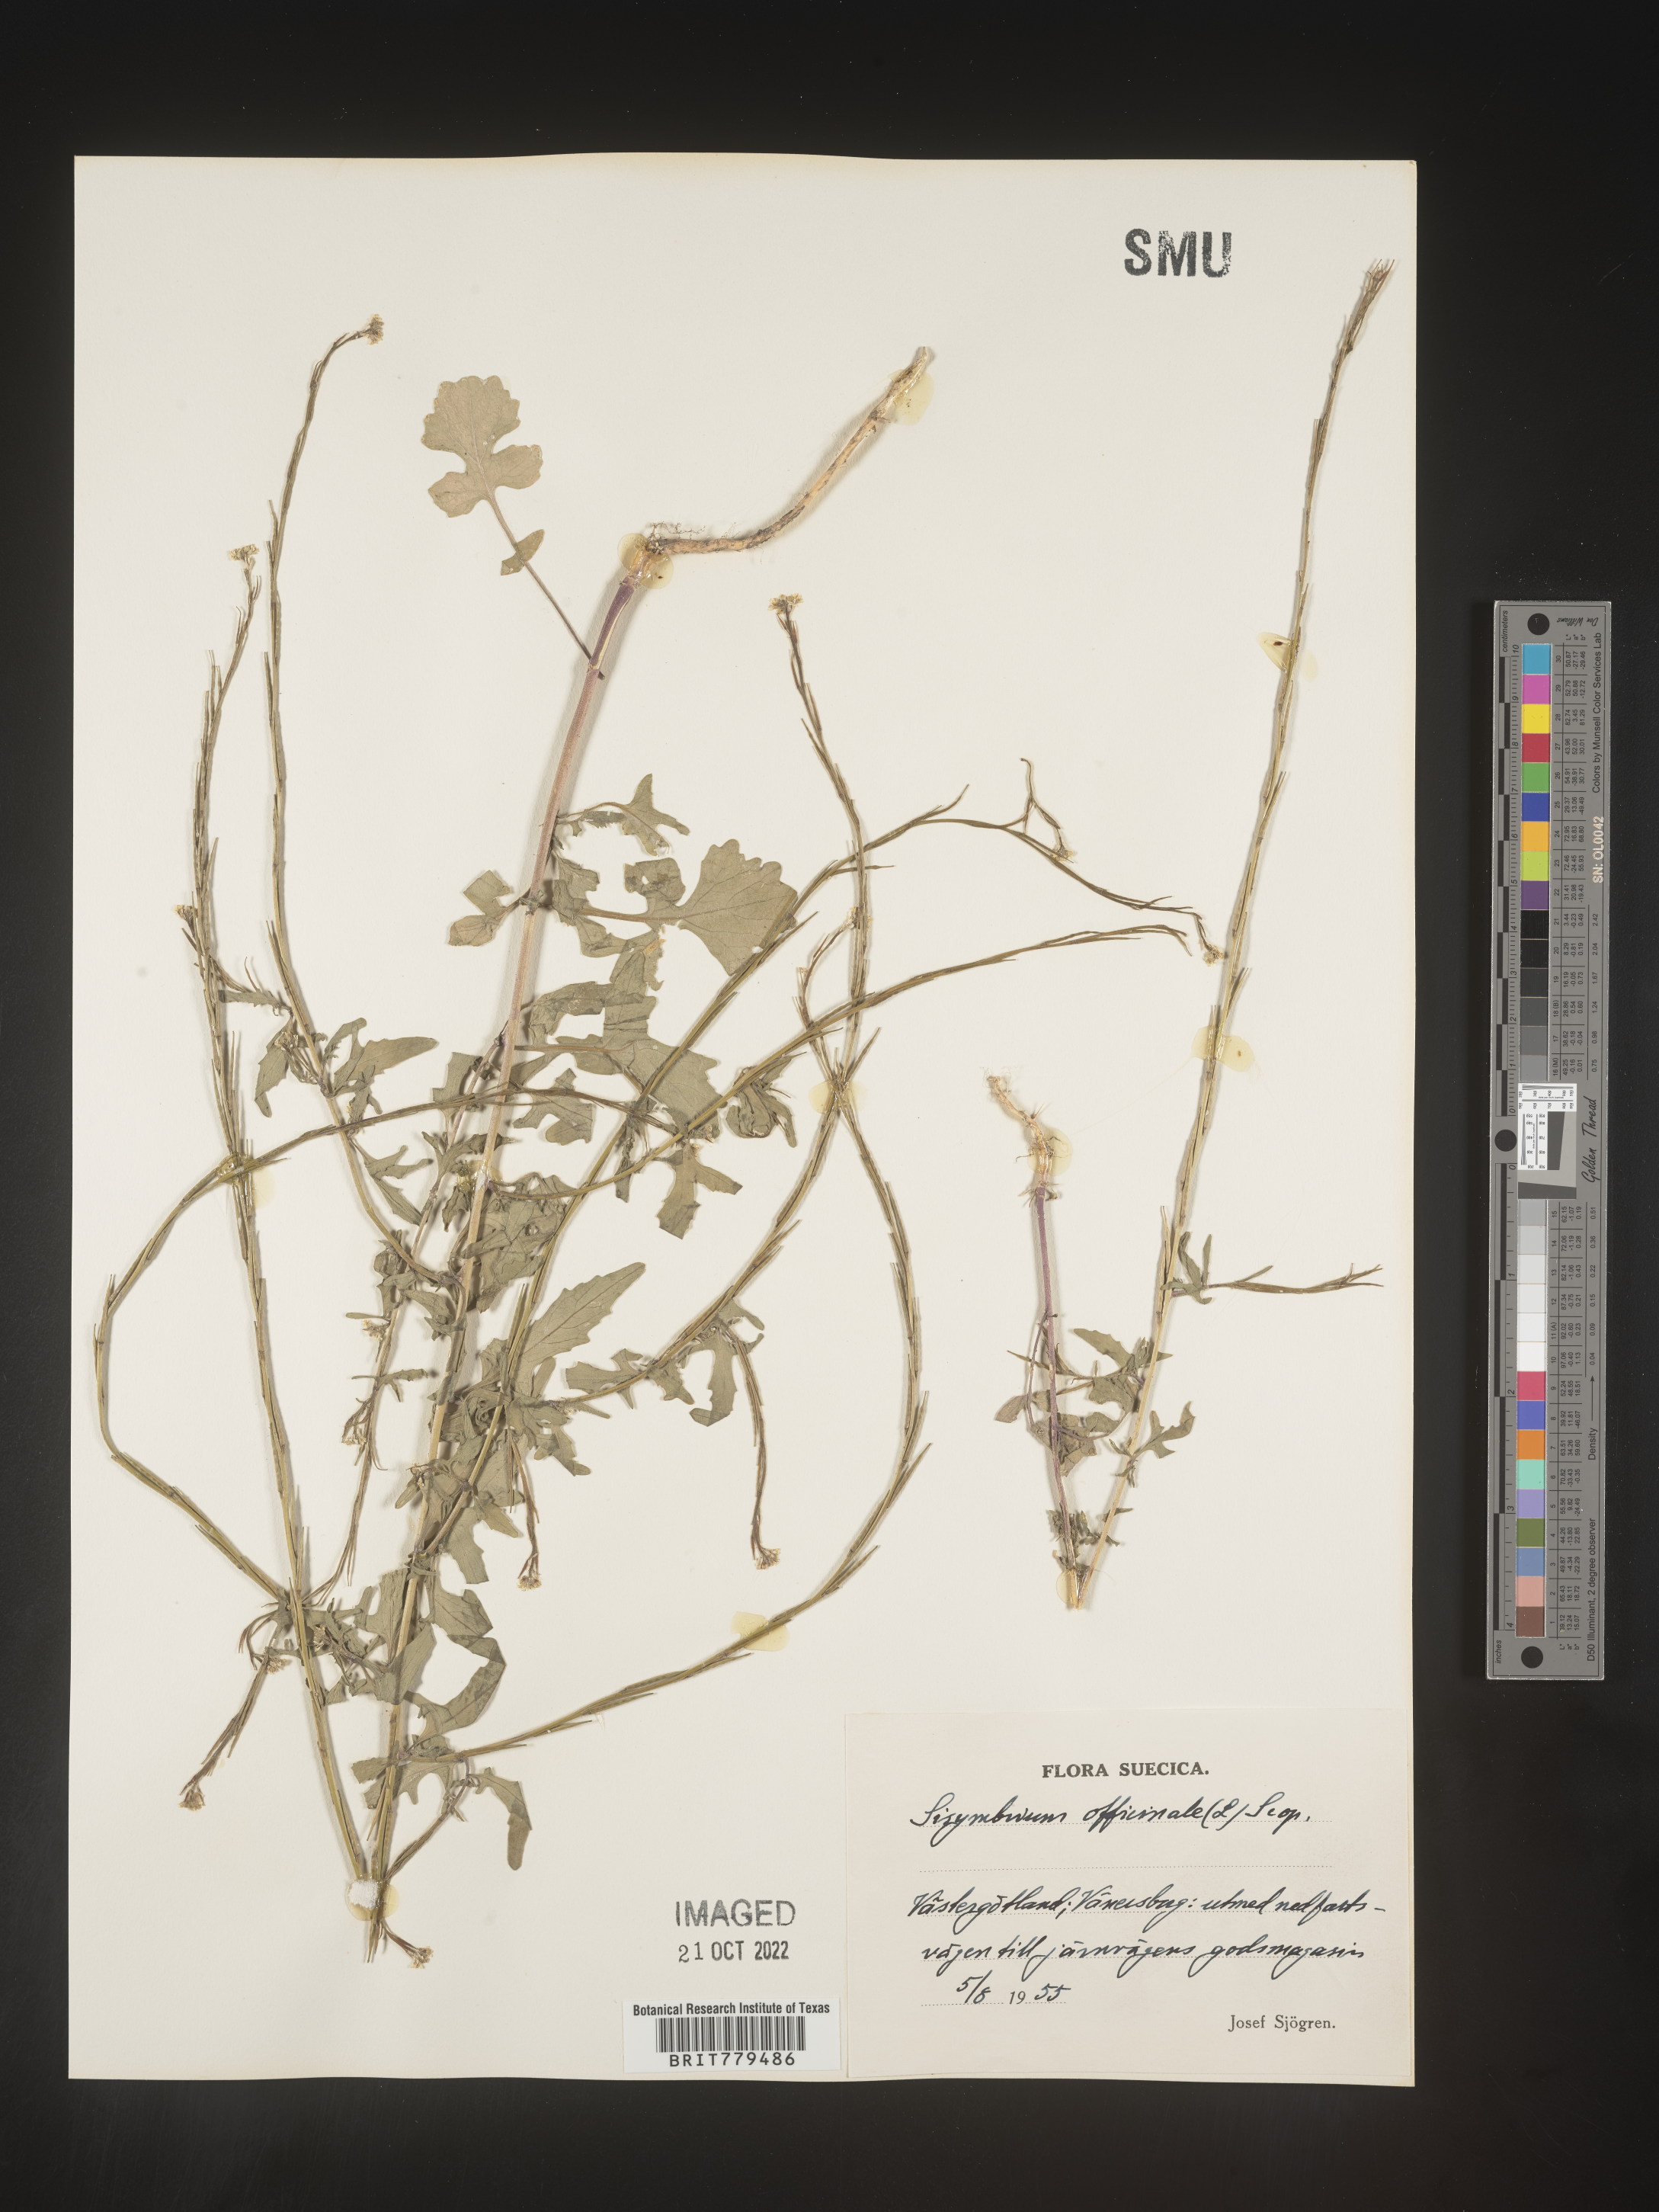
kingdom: Plantae
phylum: Tracheophyta
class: Magnoliopsida
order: Brassicales
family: Brassicaceae
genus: Sisymbrium
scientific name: Sisymbrium
